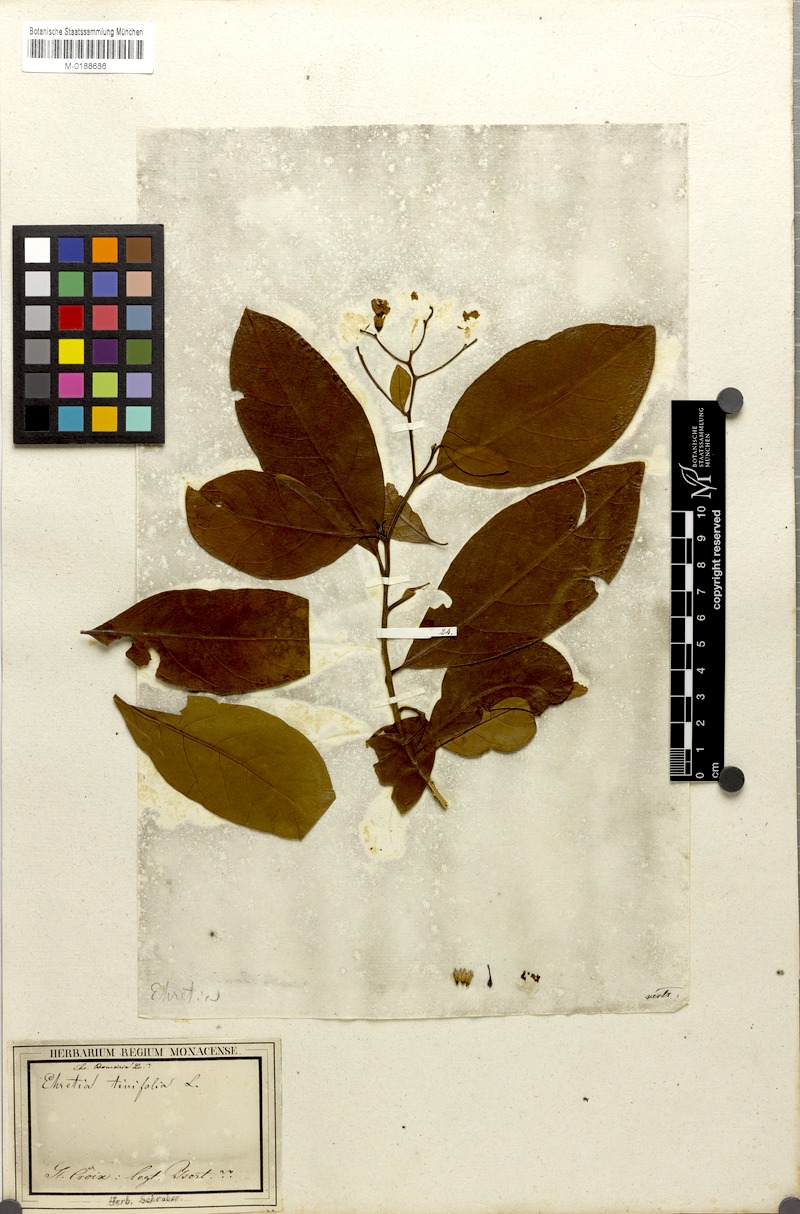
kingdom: Plantae
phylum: Tracheophyta
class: Magnoliopsida
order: Boraginales
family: Ehretiaceae
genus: Bourreria
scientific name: Bourreria exsucca
